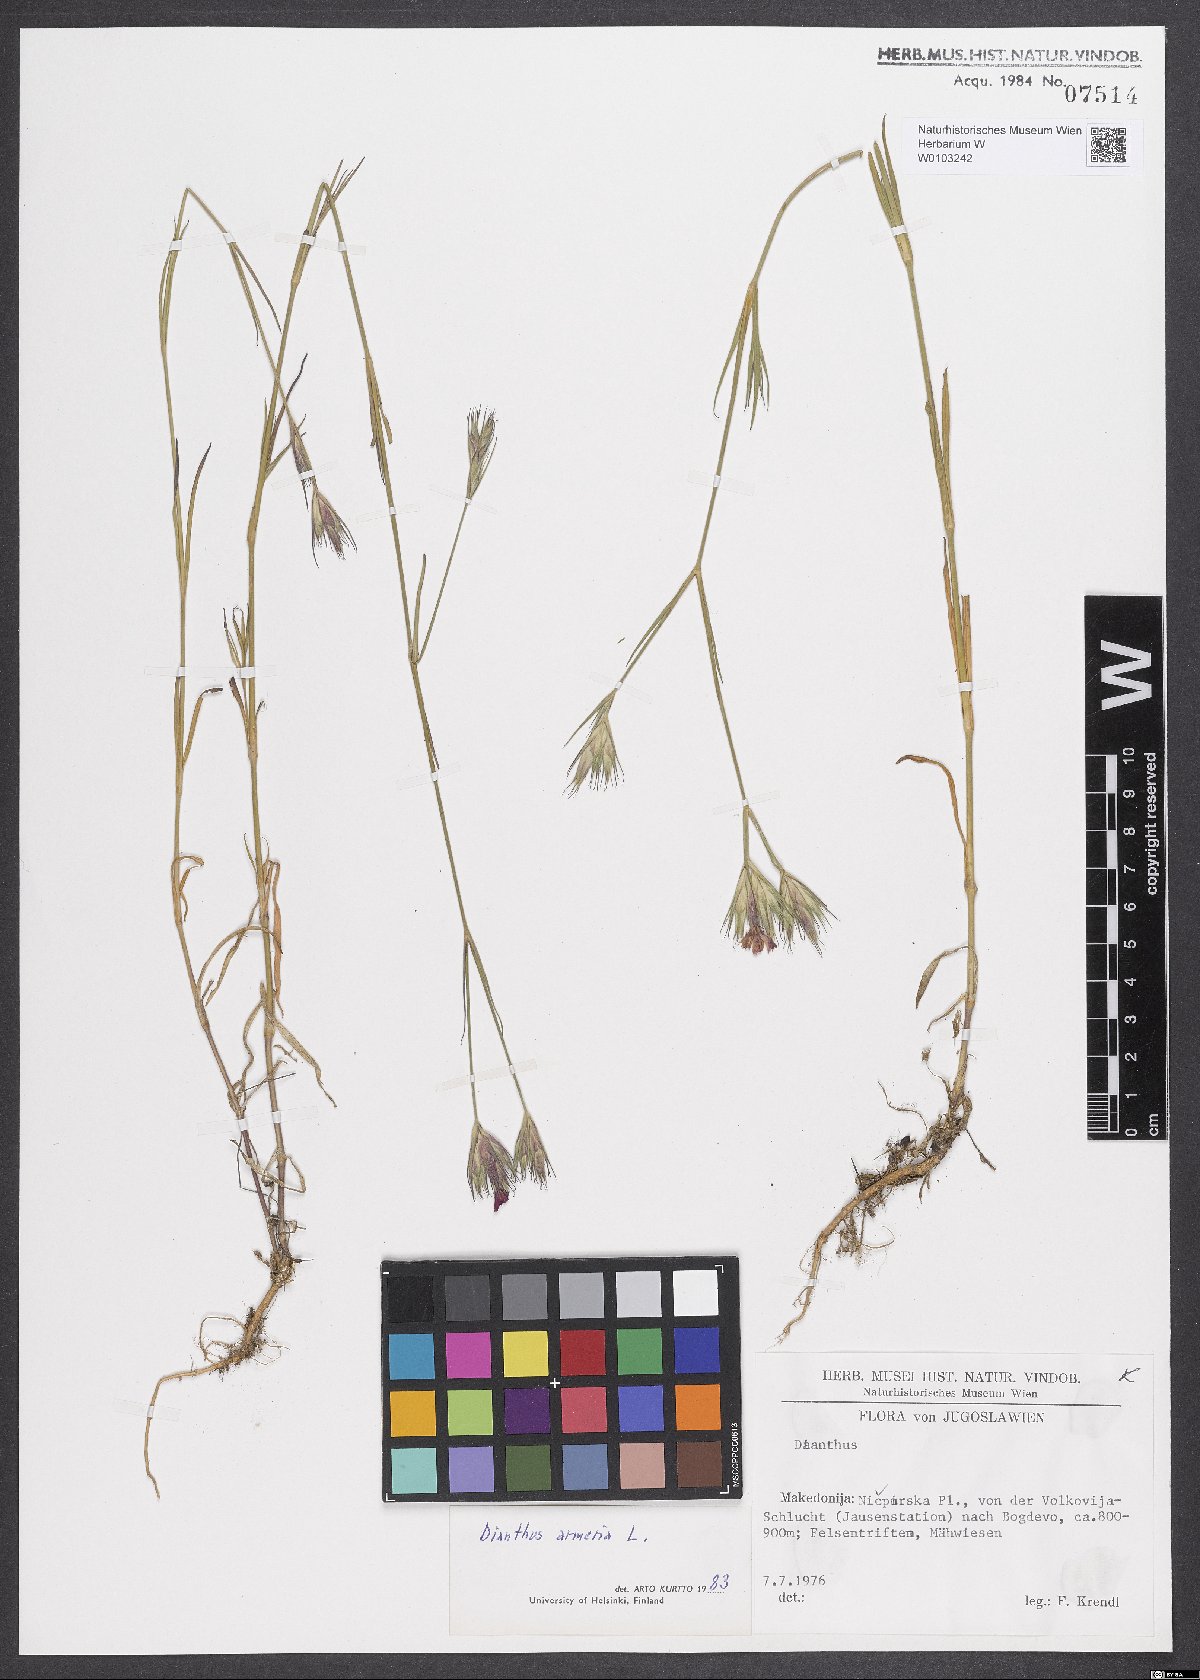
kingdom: Plantae
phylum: Tracheophyta
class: Magnoliopsida
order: Caryophyllales
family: Caryophyllaceae
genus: Dianthus
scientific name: Dianthus armeria
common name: Deptford pink
